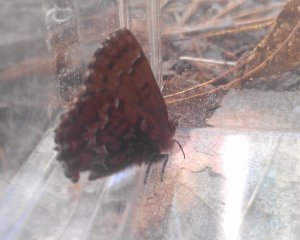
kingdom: Animalia
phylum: Arthropoda
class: Insecta
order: Lepidoptera
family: Lycaenidae
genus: Incisalia
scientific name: Incisalia niphon
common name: Eastern Pine Elfin
